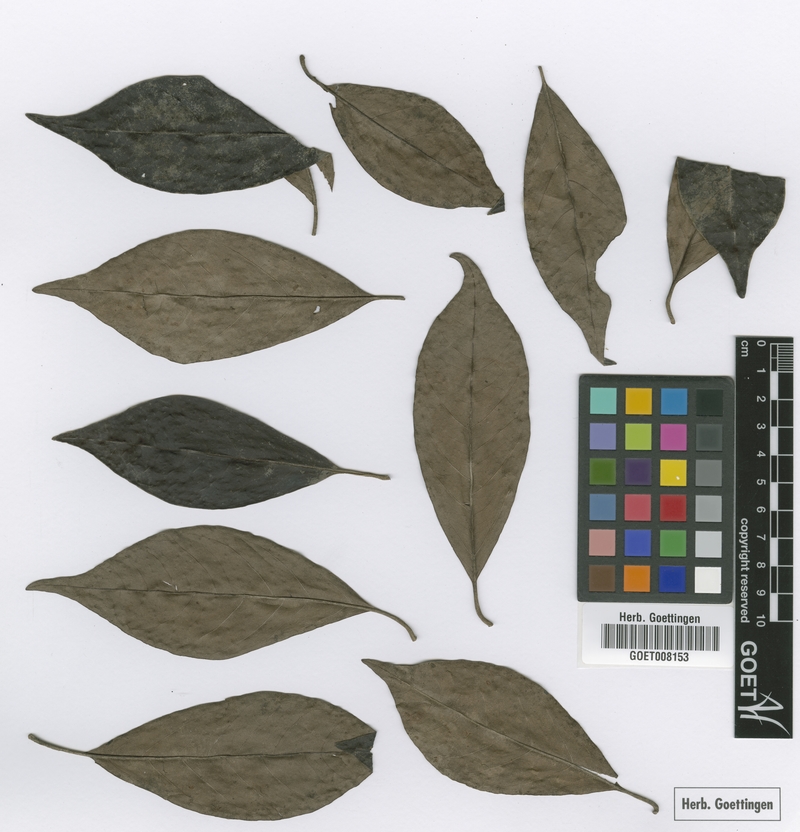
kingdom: Plantae
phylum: Tracheophyta
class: Magnoliopsida
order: Ericales
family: Primulaceae
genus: Cybianthus
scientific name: Cybianthus cruegeri
